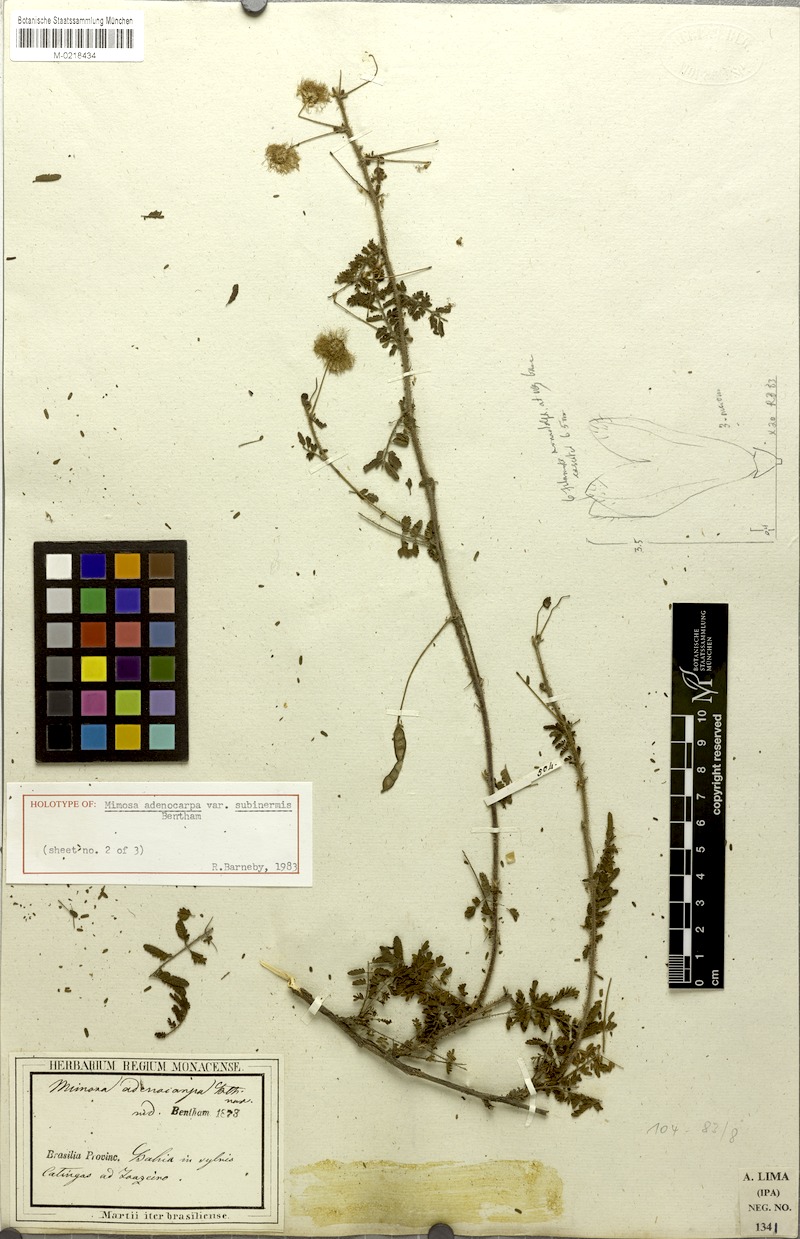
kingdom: Plantae
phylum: Tracheophyta
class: Magnoliopsida
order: Fabales
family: Fabaceae
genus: Mimosa
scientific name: Mimosa misera
